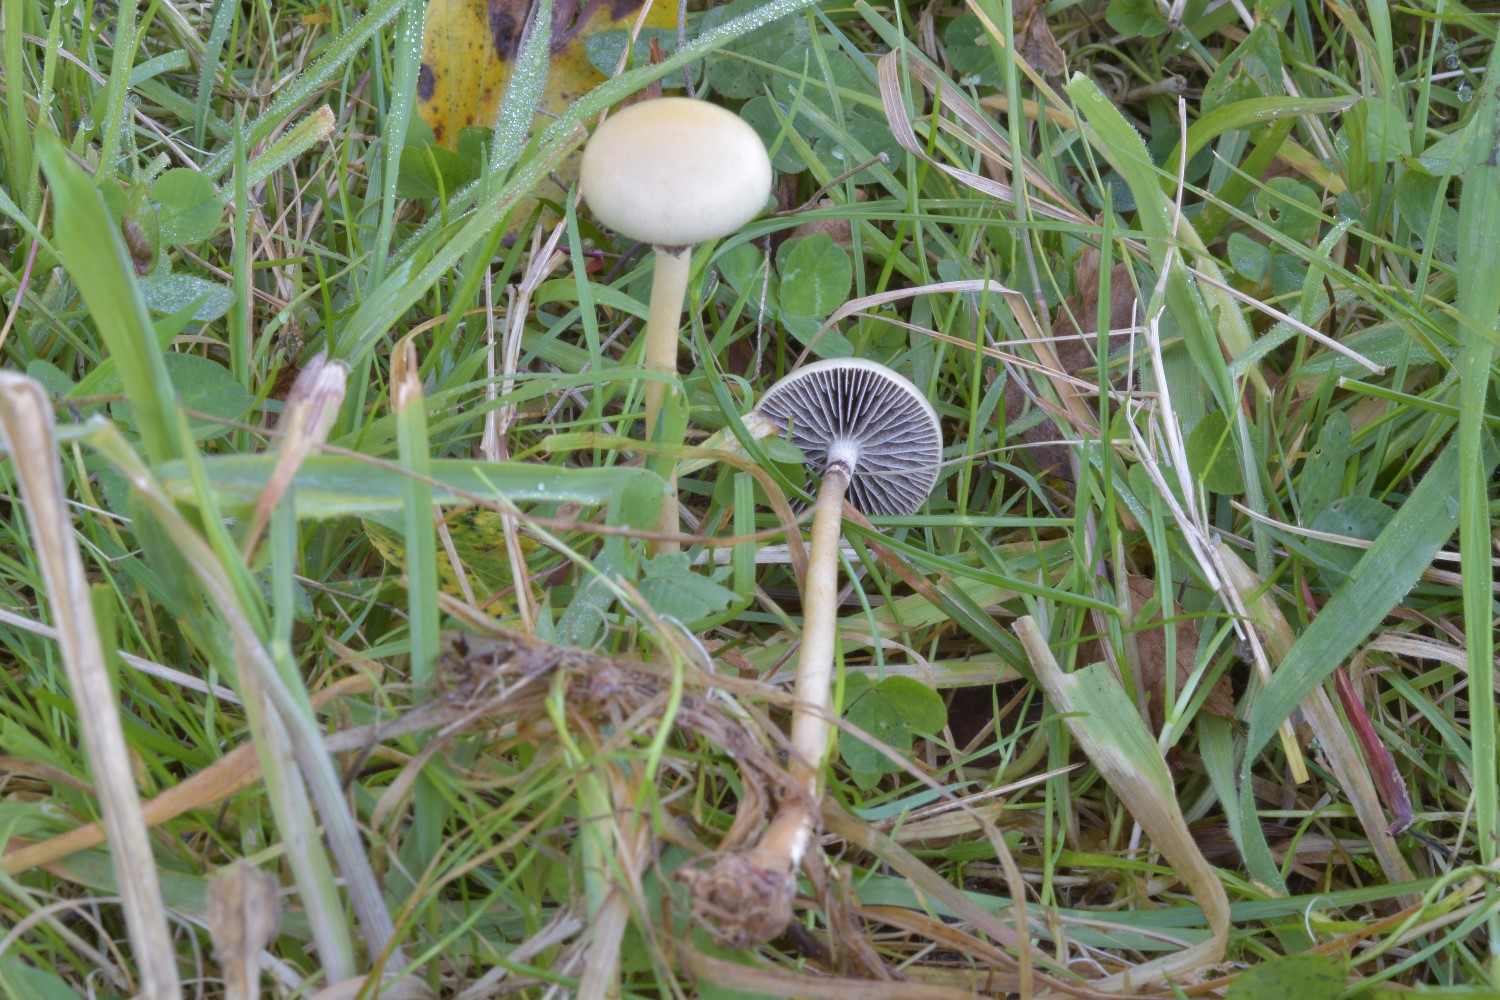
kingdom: Fungi
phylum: Basidiomycota
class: Agaricomycetes
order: Agaricales
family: Strophariaceae
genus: Protostropharia
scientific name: Protostropharia semiglobata
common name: halvkugleformet bredblad
